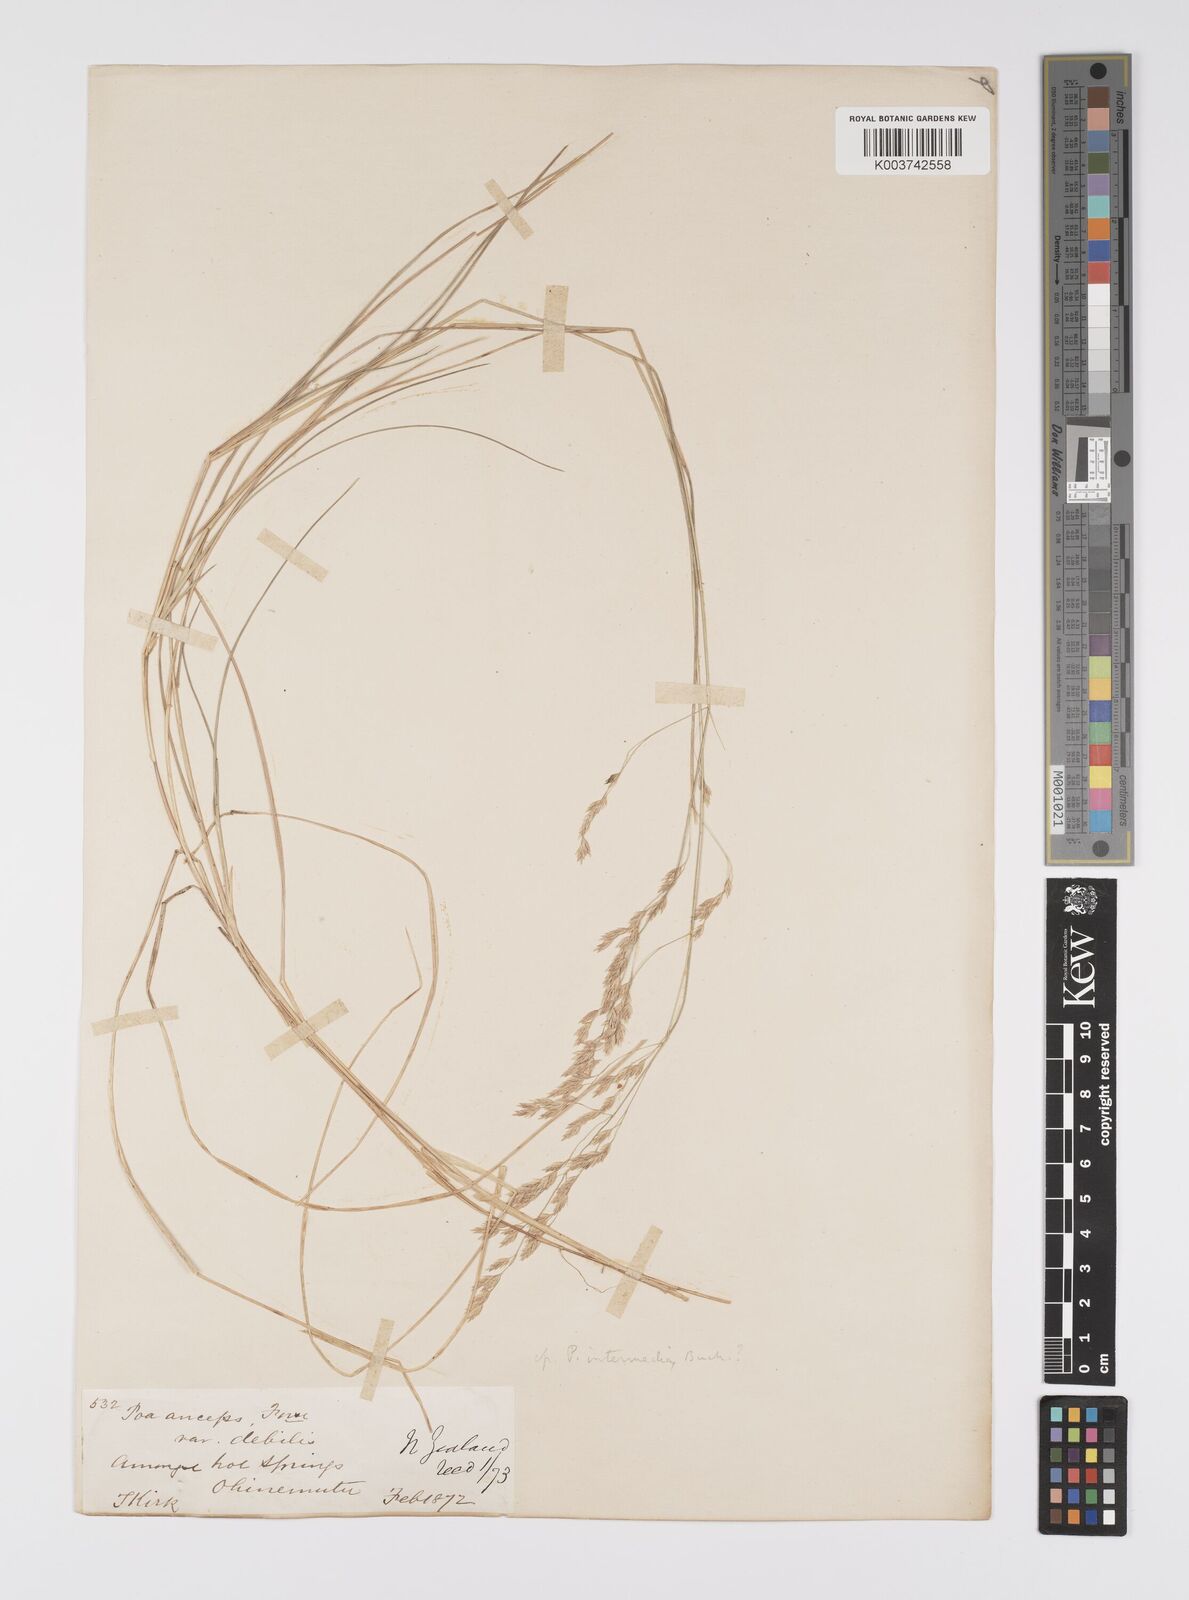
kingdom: Plantae
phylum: Tracheophyta
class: Liliopsida
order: Poales
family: Poaceae
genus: Poa
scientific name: Poa anceps
